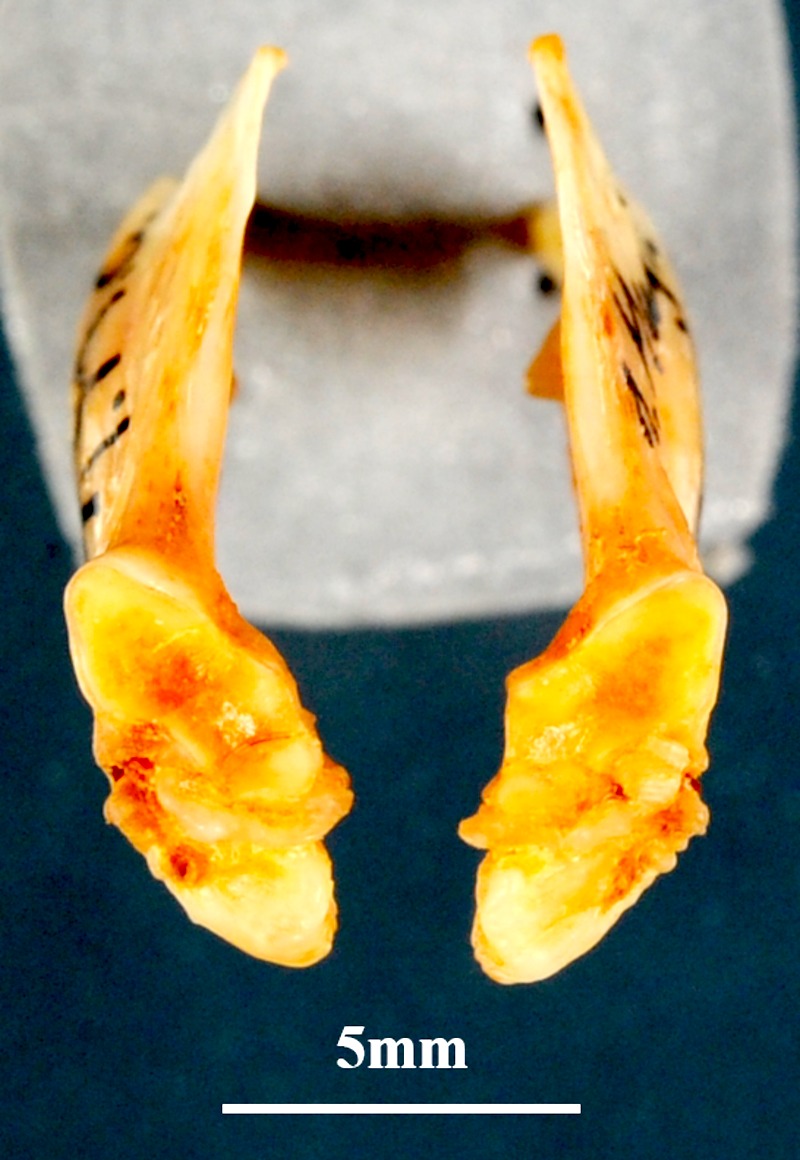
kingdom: Animalia
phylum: Chordata
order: Mugiliformes
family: Mugilidae
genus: Mugil
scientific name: Mugil cephalus
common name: Grey mullet
